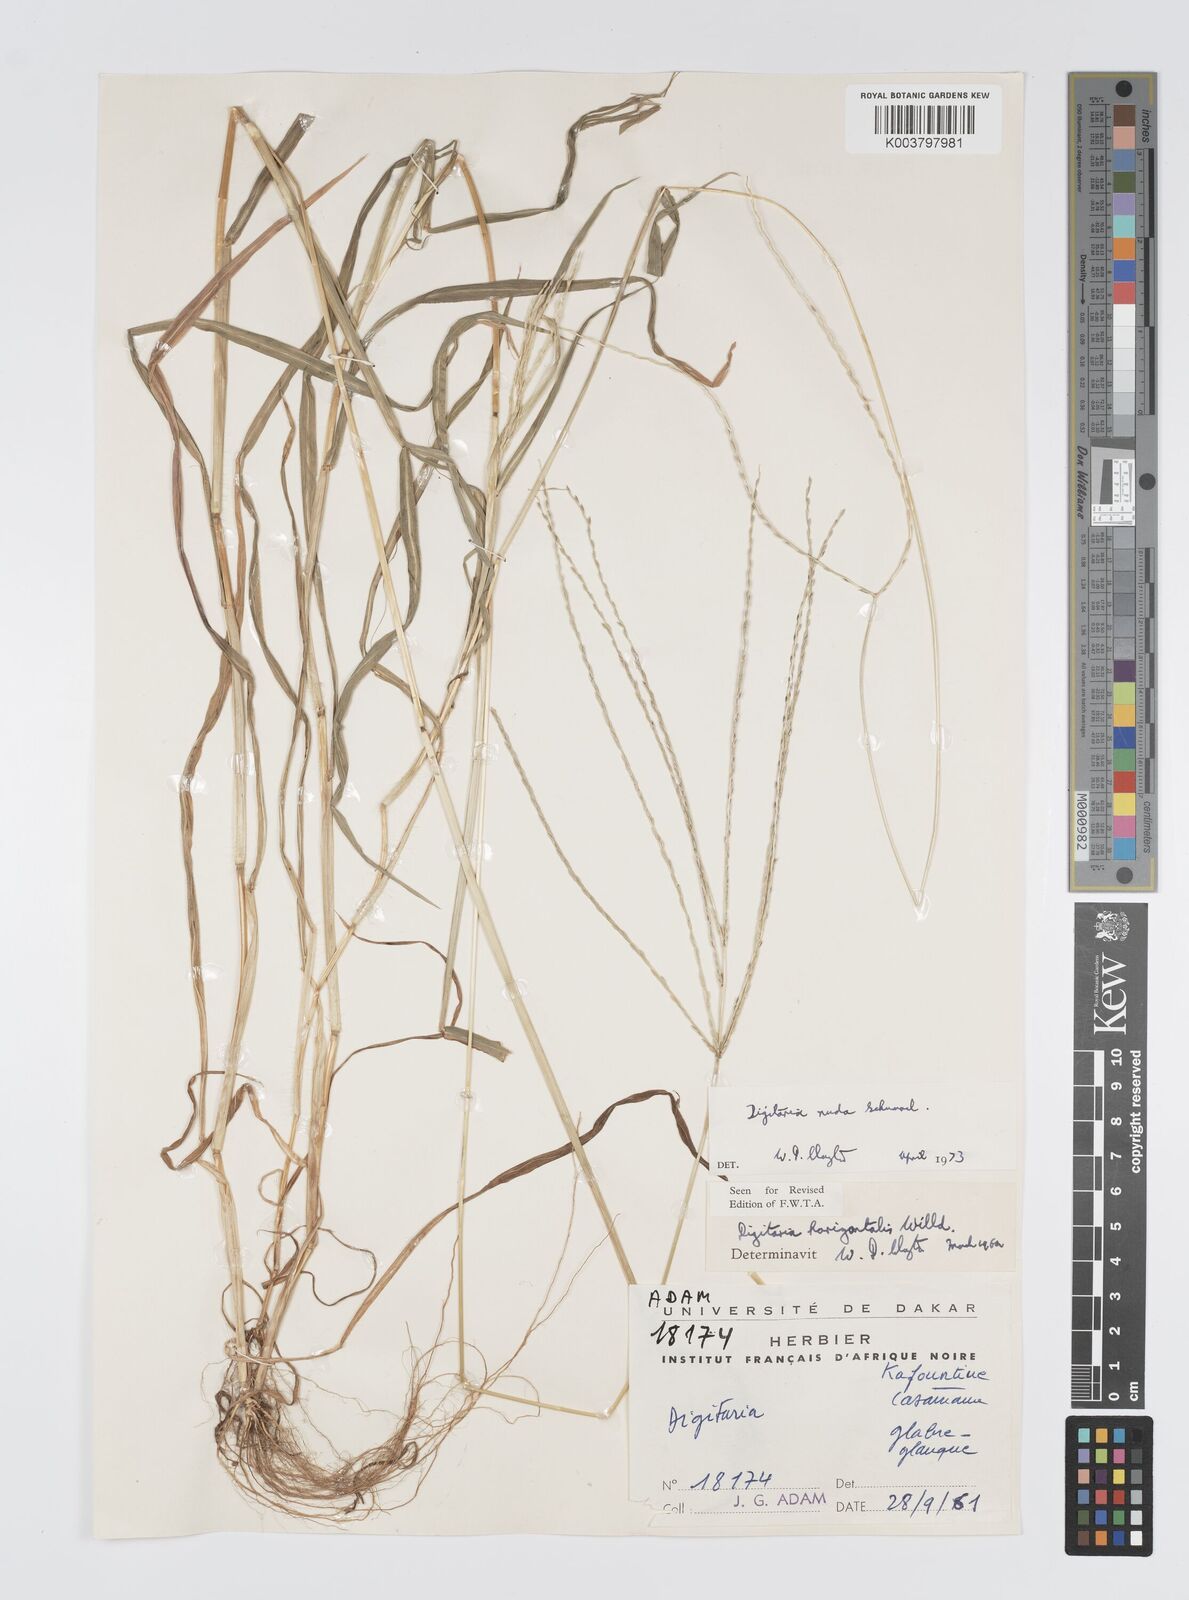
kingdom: Plantae
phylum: Tracheophyta
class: Liliopsida
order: Poales
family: Poaceae
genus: Digitaria
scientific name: Digitaria nuda
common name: Naked crabgrass
